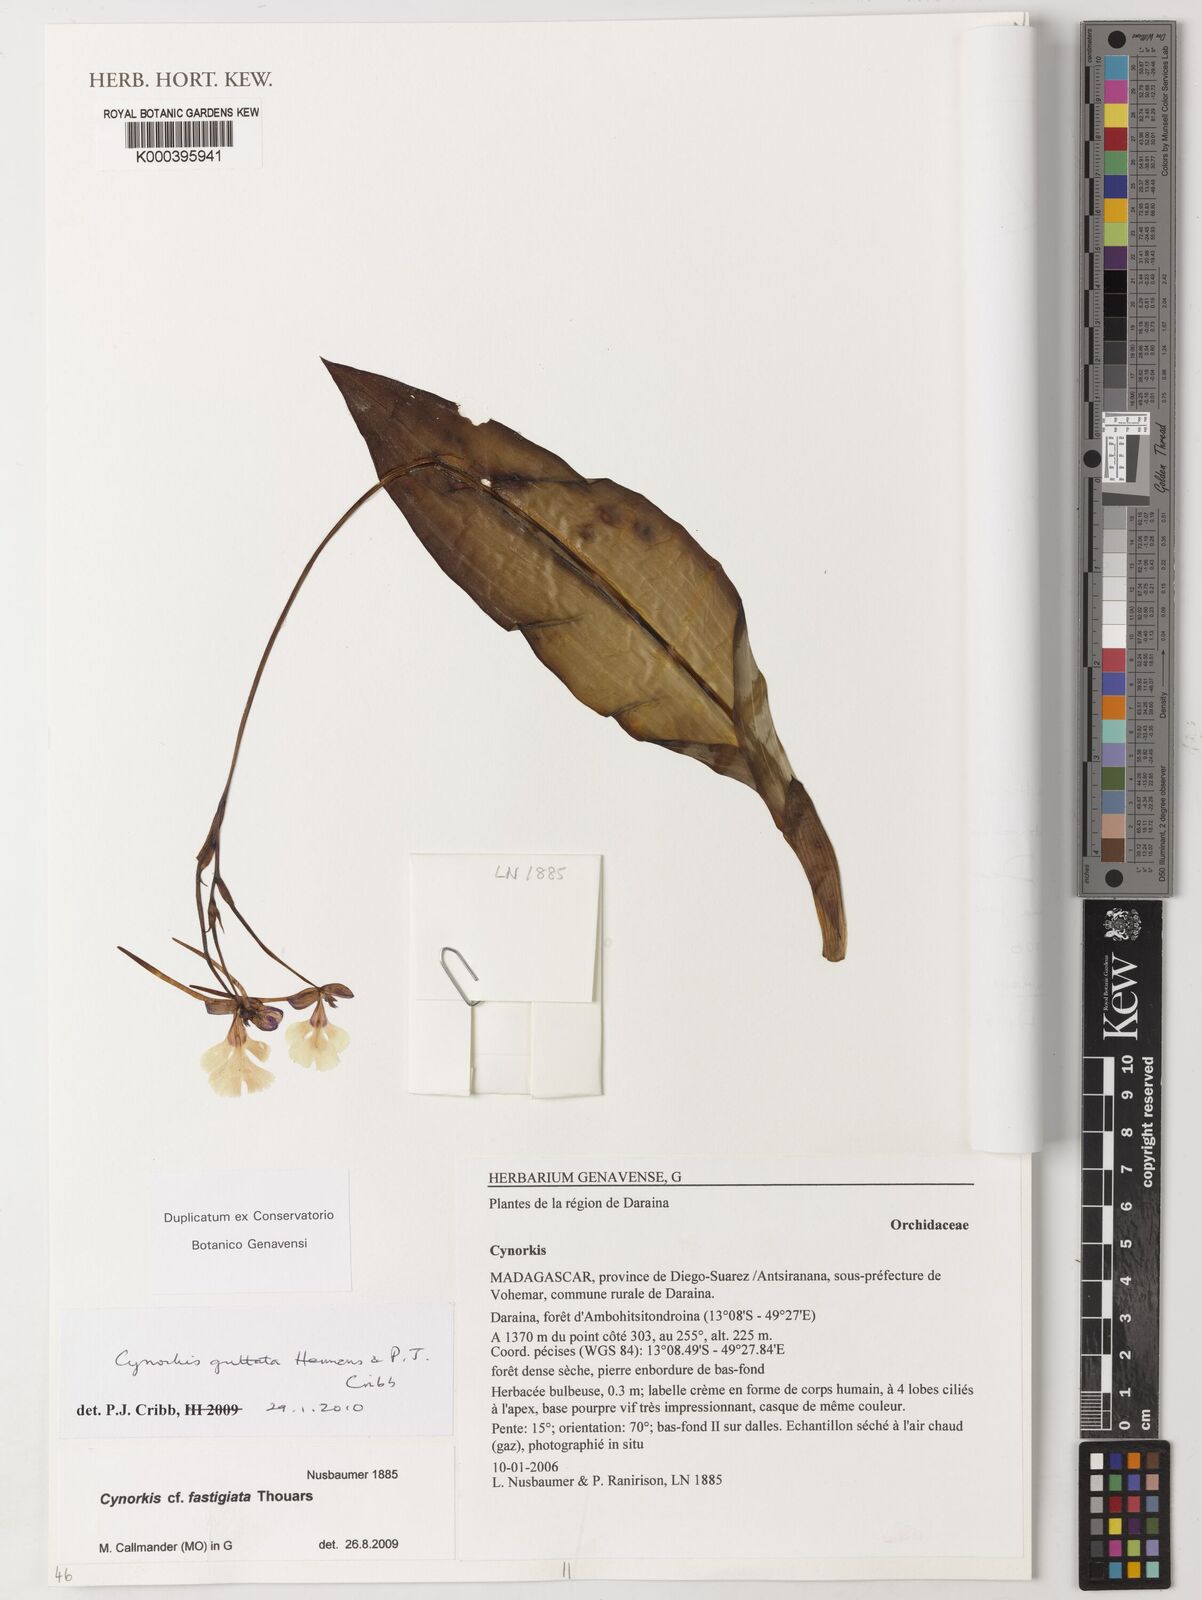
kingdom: Plantae
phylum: Tracheophyta
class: Liliopsida
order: Asparagales
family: Orchidaceae
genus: Cynorkis
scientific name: Cynorkis angustipetala
